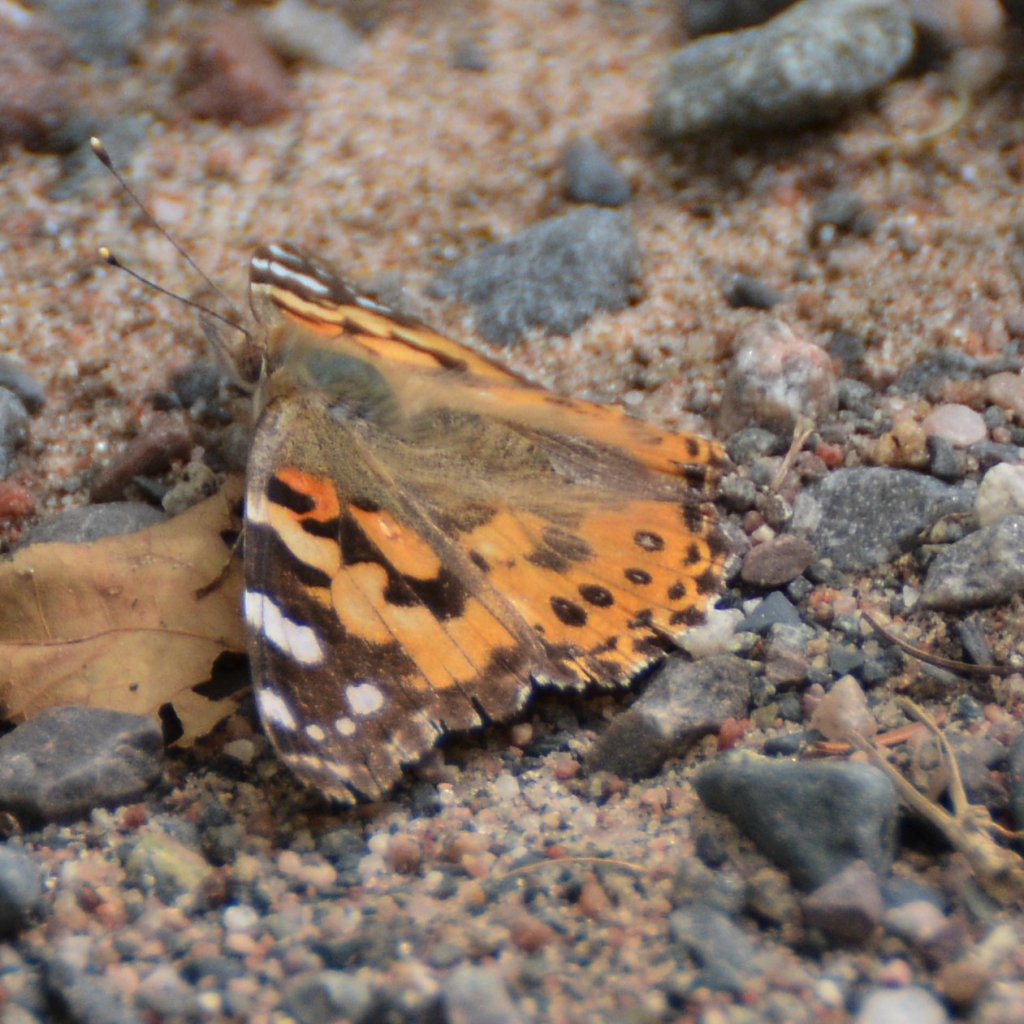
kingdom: Animalia
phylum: Arthropoda
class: Insecta
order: Lepidoptera
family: Nymphalidae
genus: Vanessa
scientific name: Vanessa cardui
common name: Painted Lady
